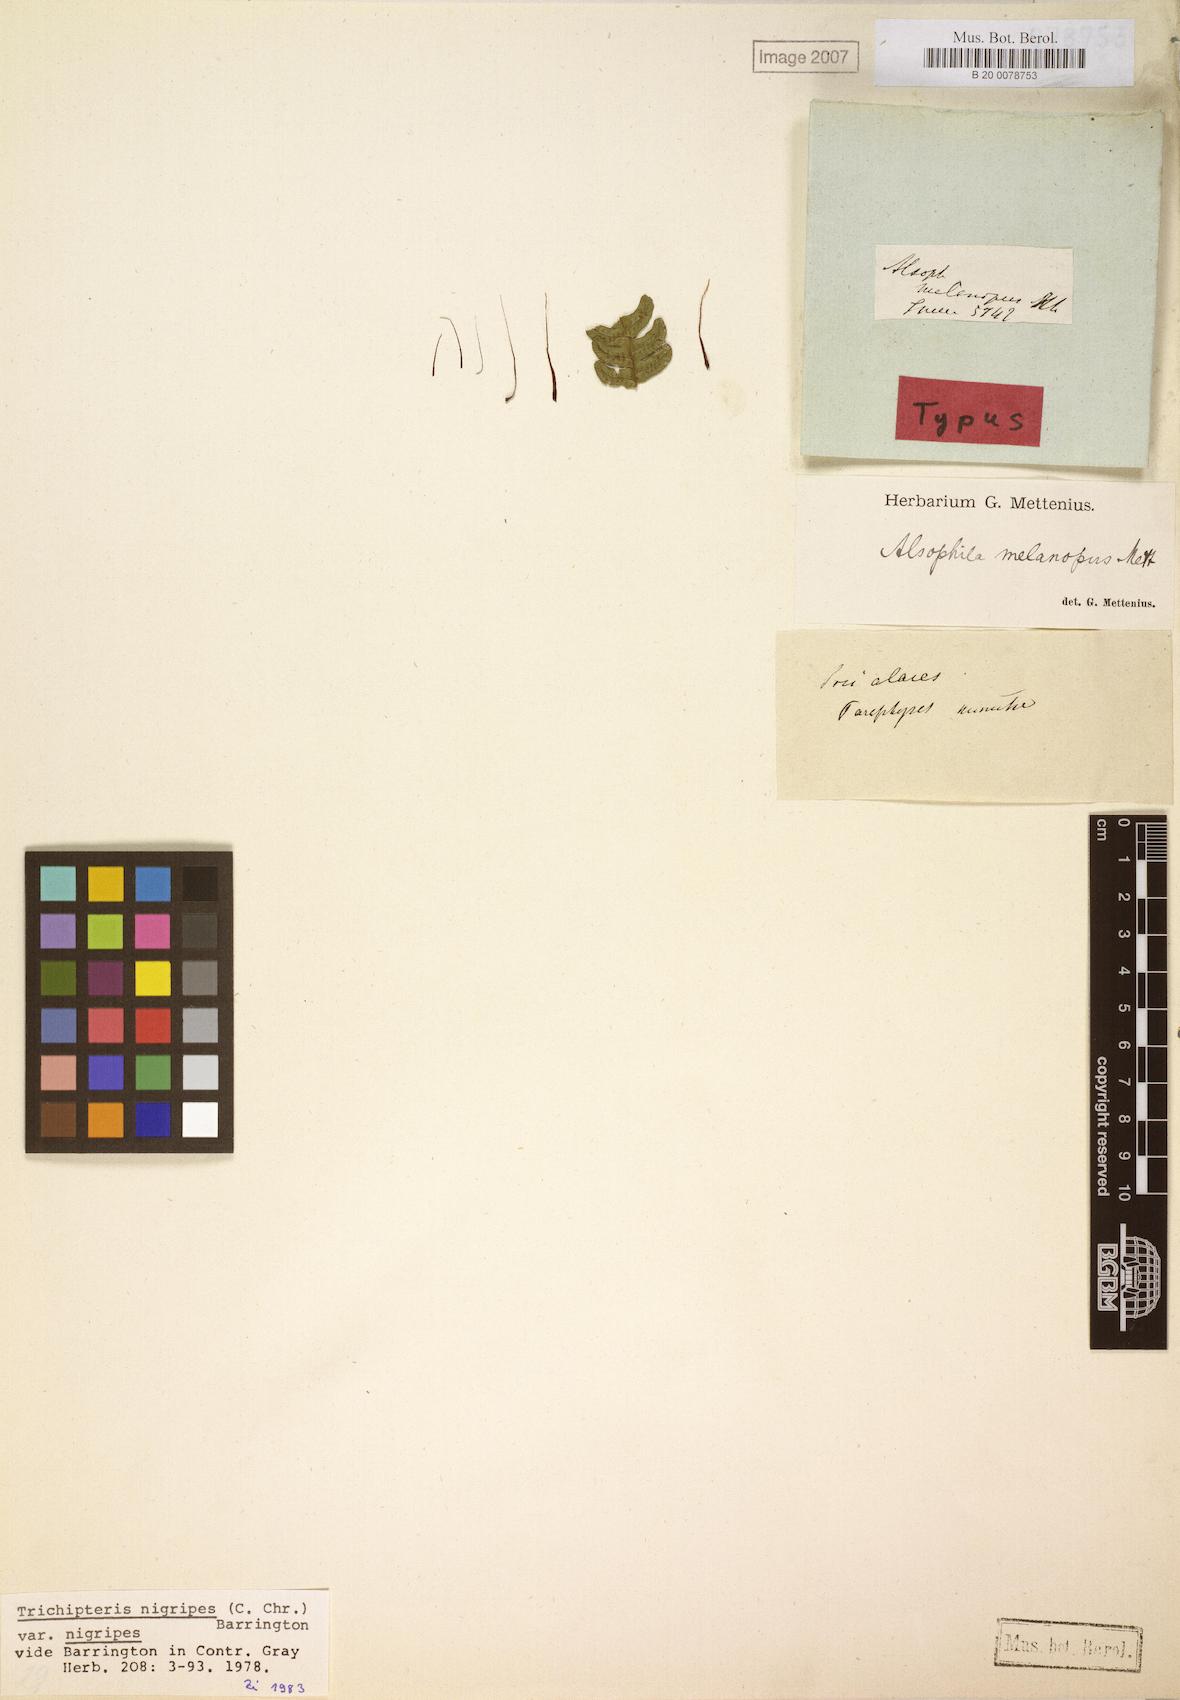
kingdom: Plantae
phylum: Tracheophyta
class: Polypodiopsida
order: Cyatheales
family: Cyatheaceae
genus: Cyathea
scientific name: Cyathea nigripes
